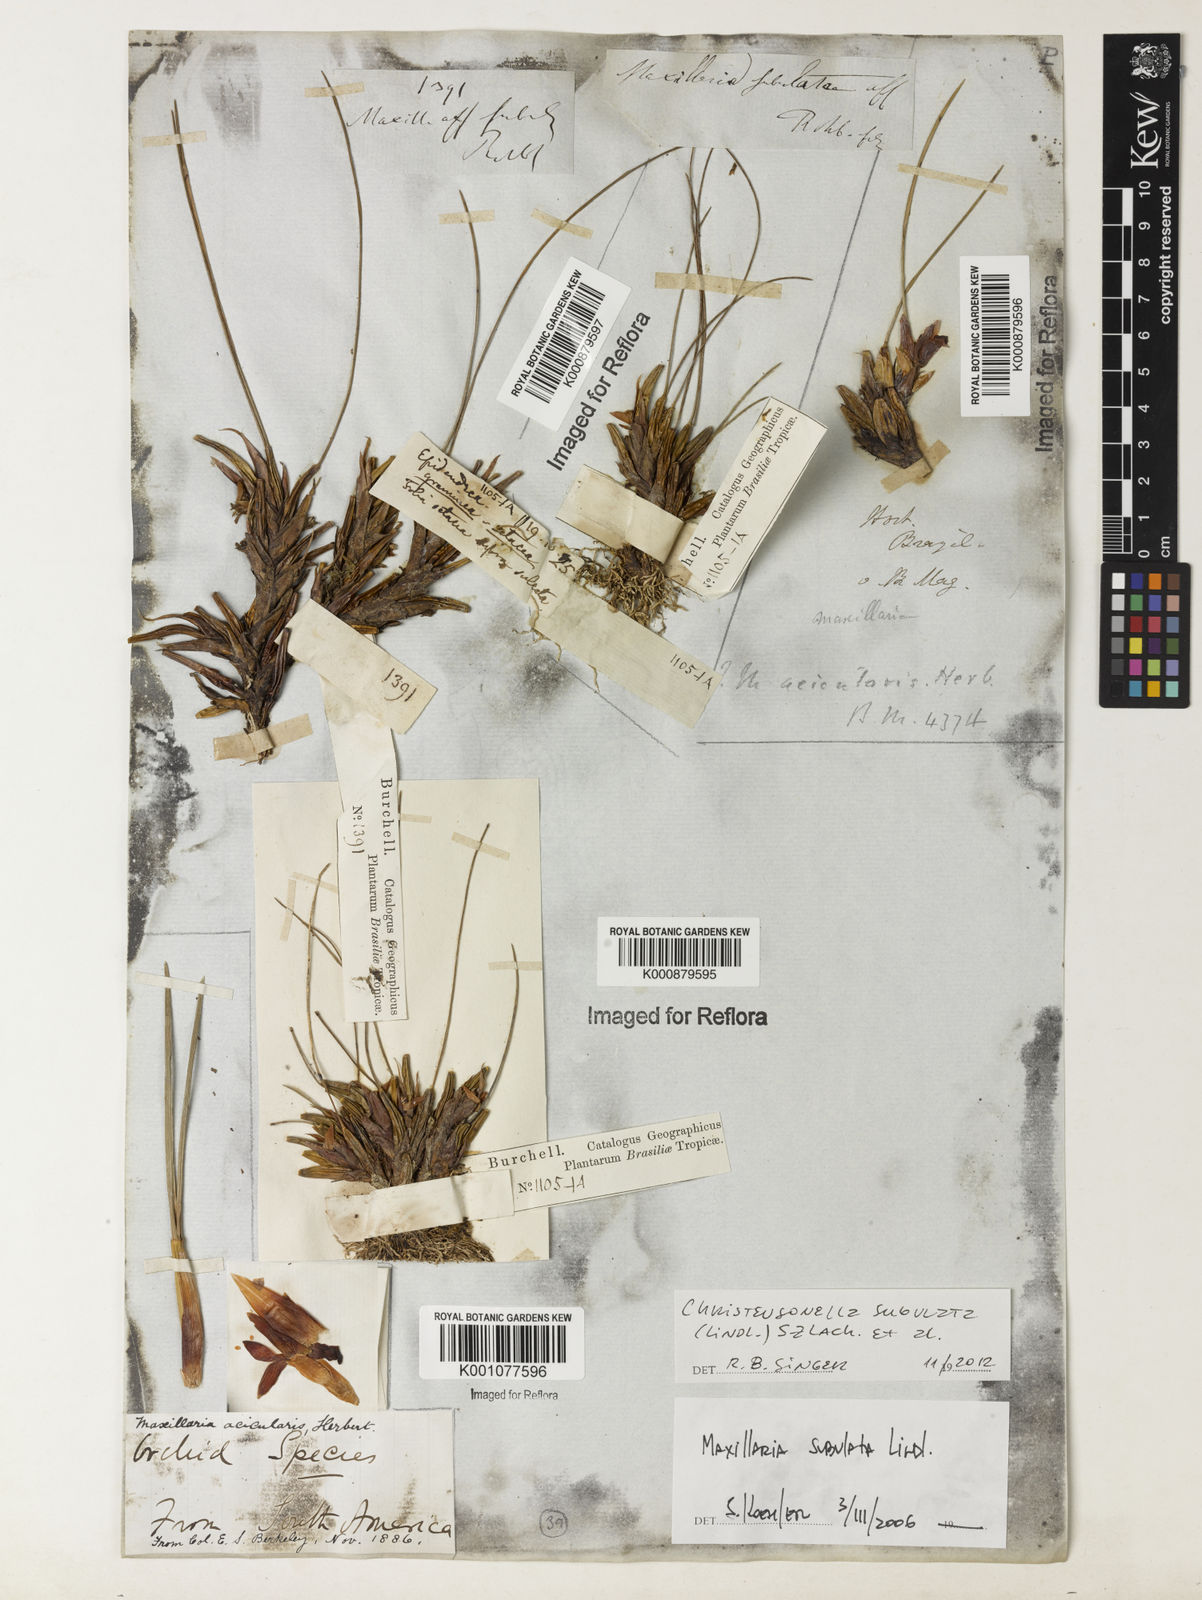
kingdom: Plantae
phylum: Tracheophyta
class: Liliopsida
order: Asparagales
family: Orchidaceae
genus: Maxillaria
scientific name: Maxillaria subulata
